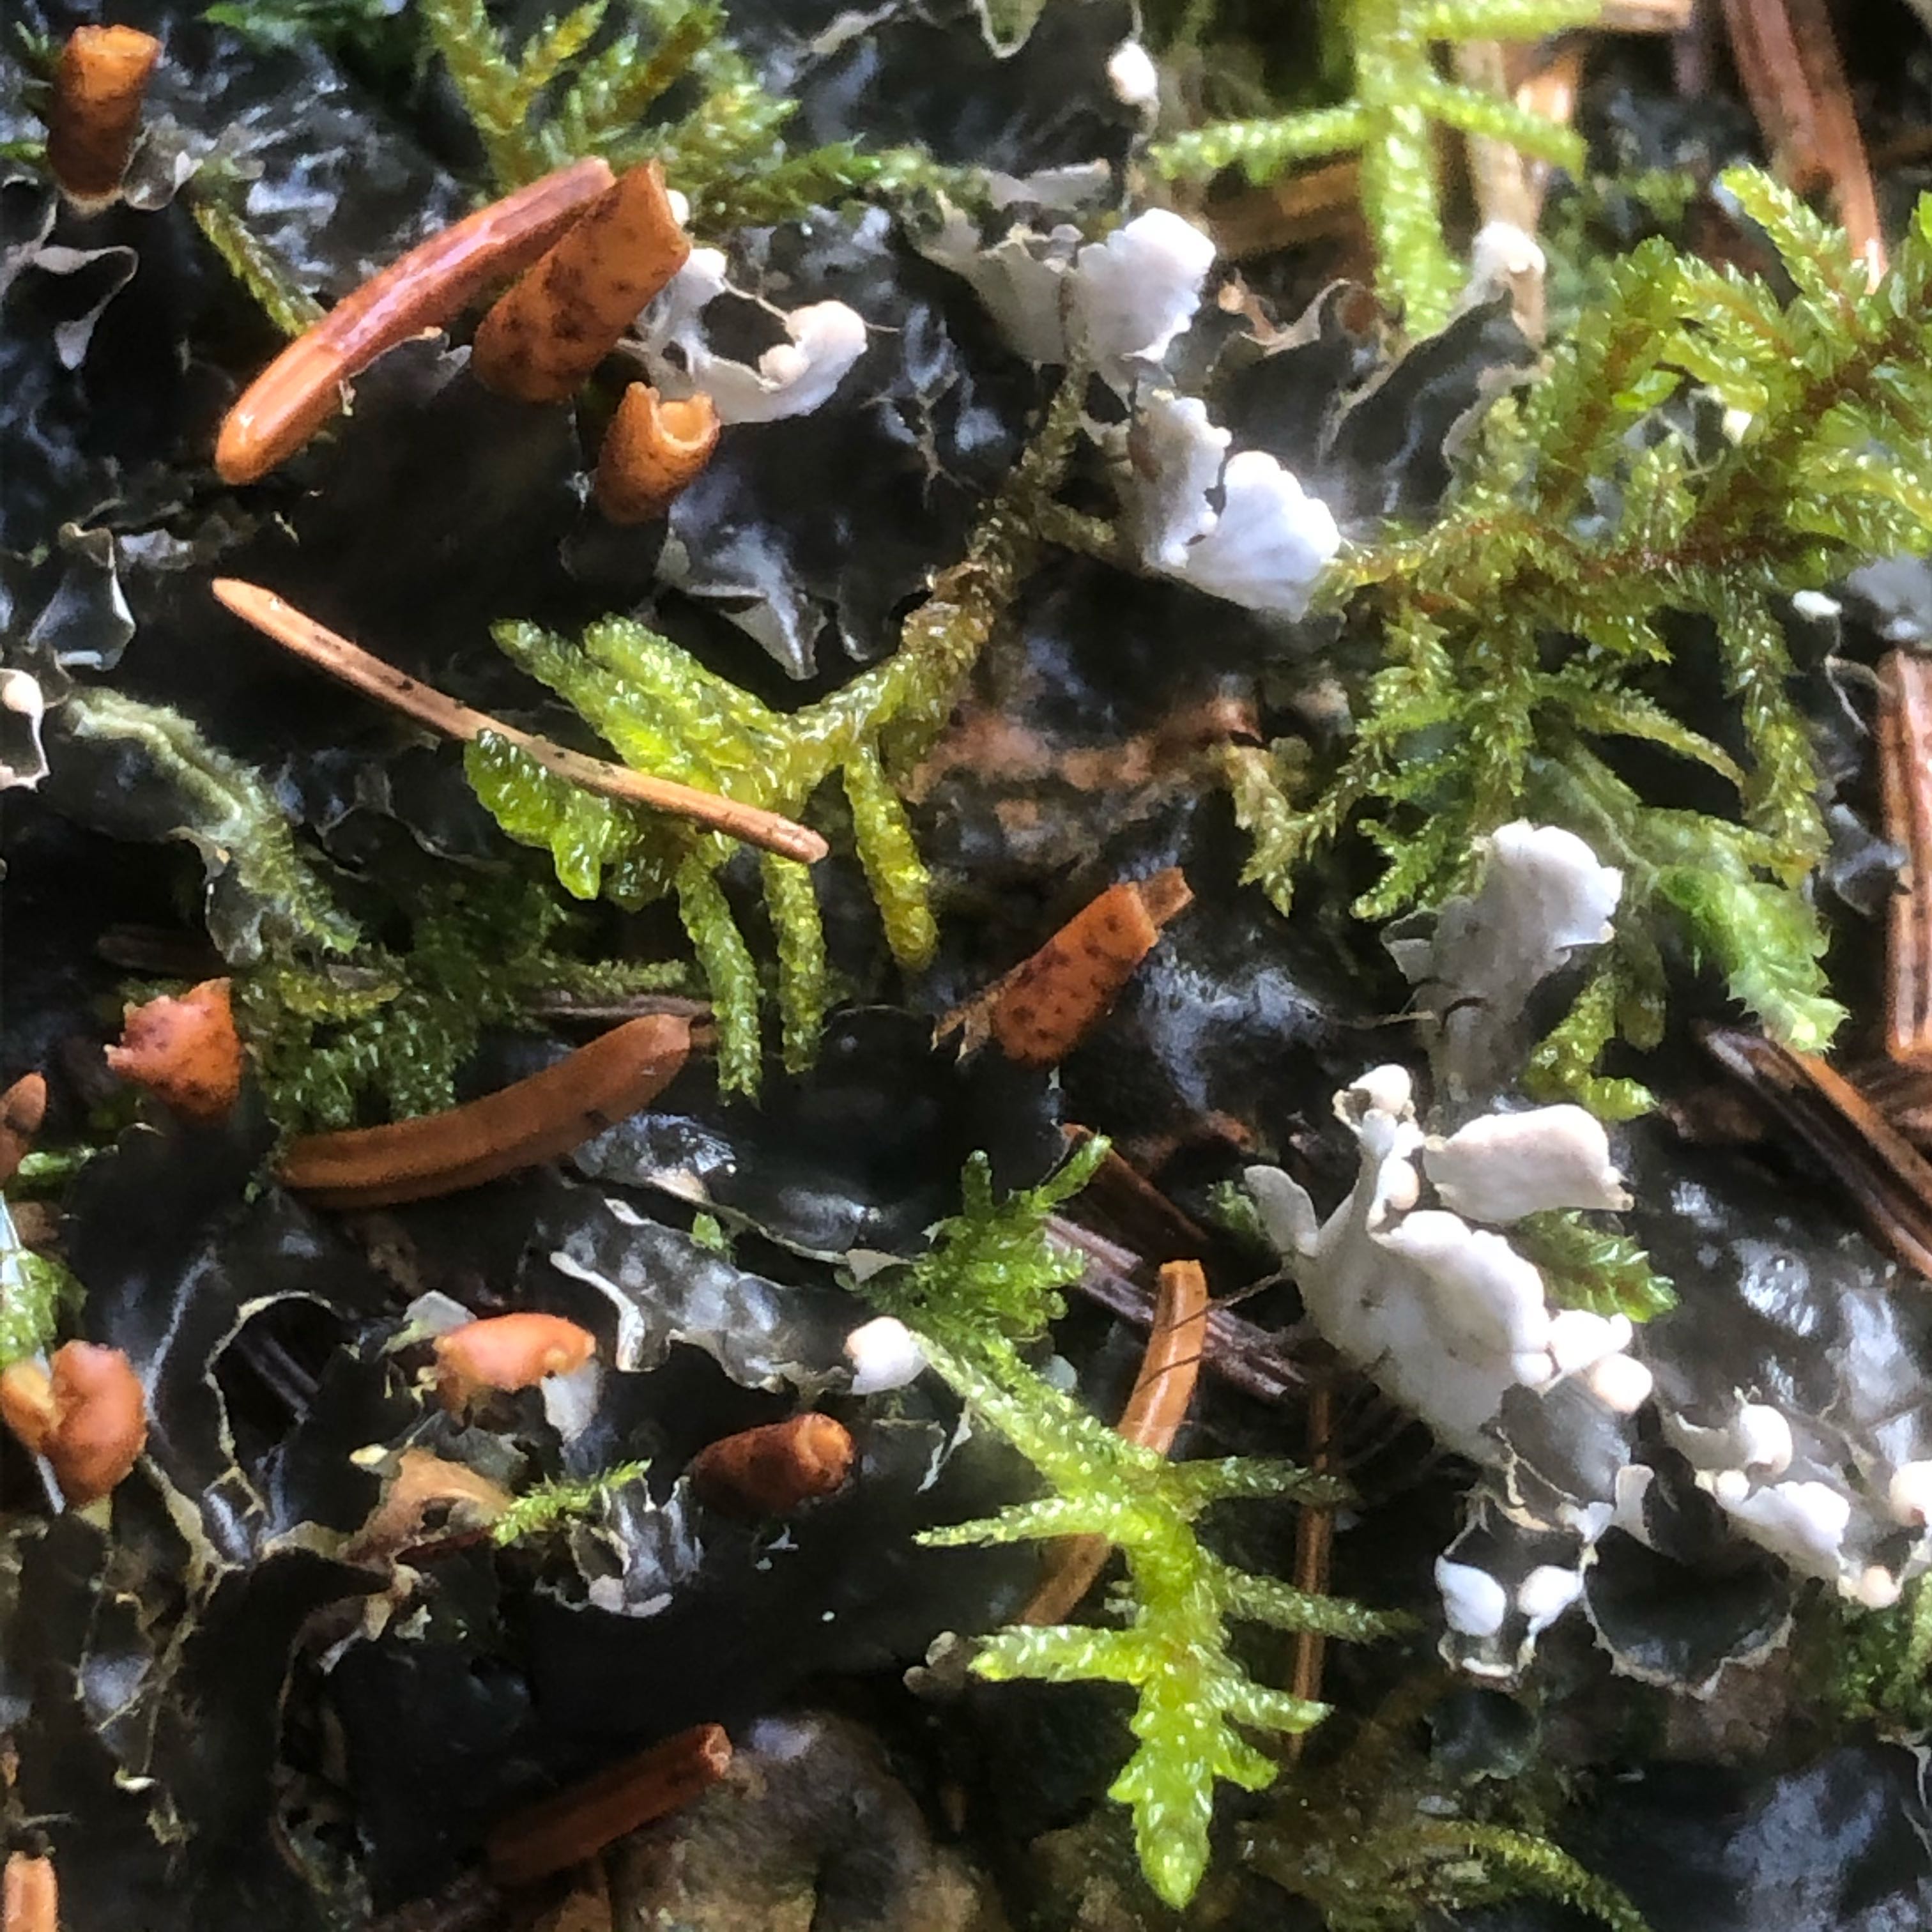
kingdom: Fungi
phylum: Ascomycota
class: Lecanoromycetes
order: Peltigerales
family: Peltigeraceae
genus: Peltigera
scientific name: Peltigera hymenina
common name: hinde-skjoldlav
